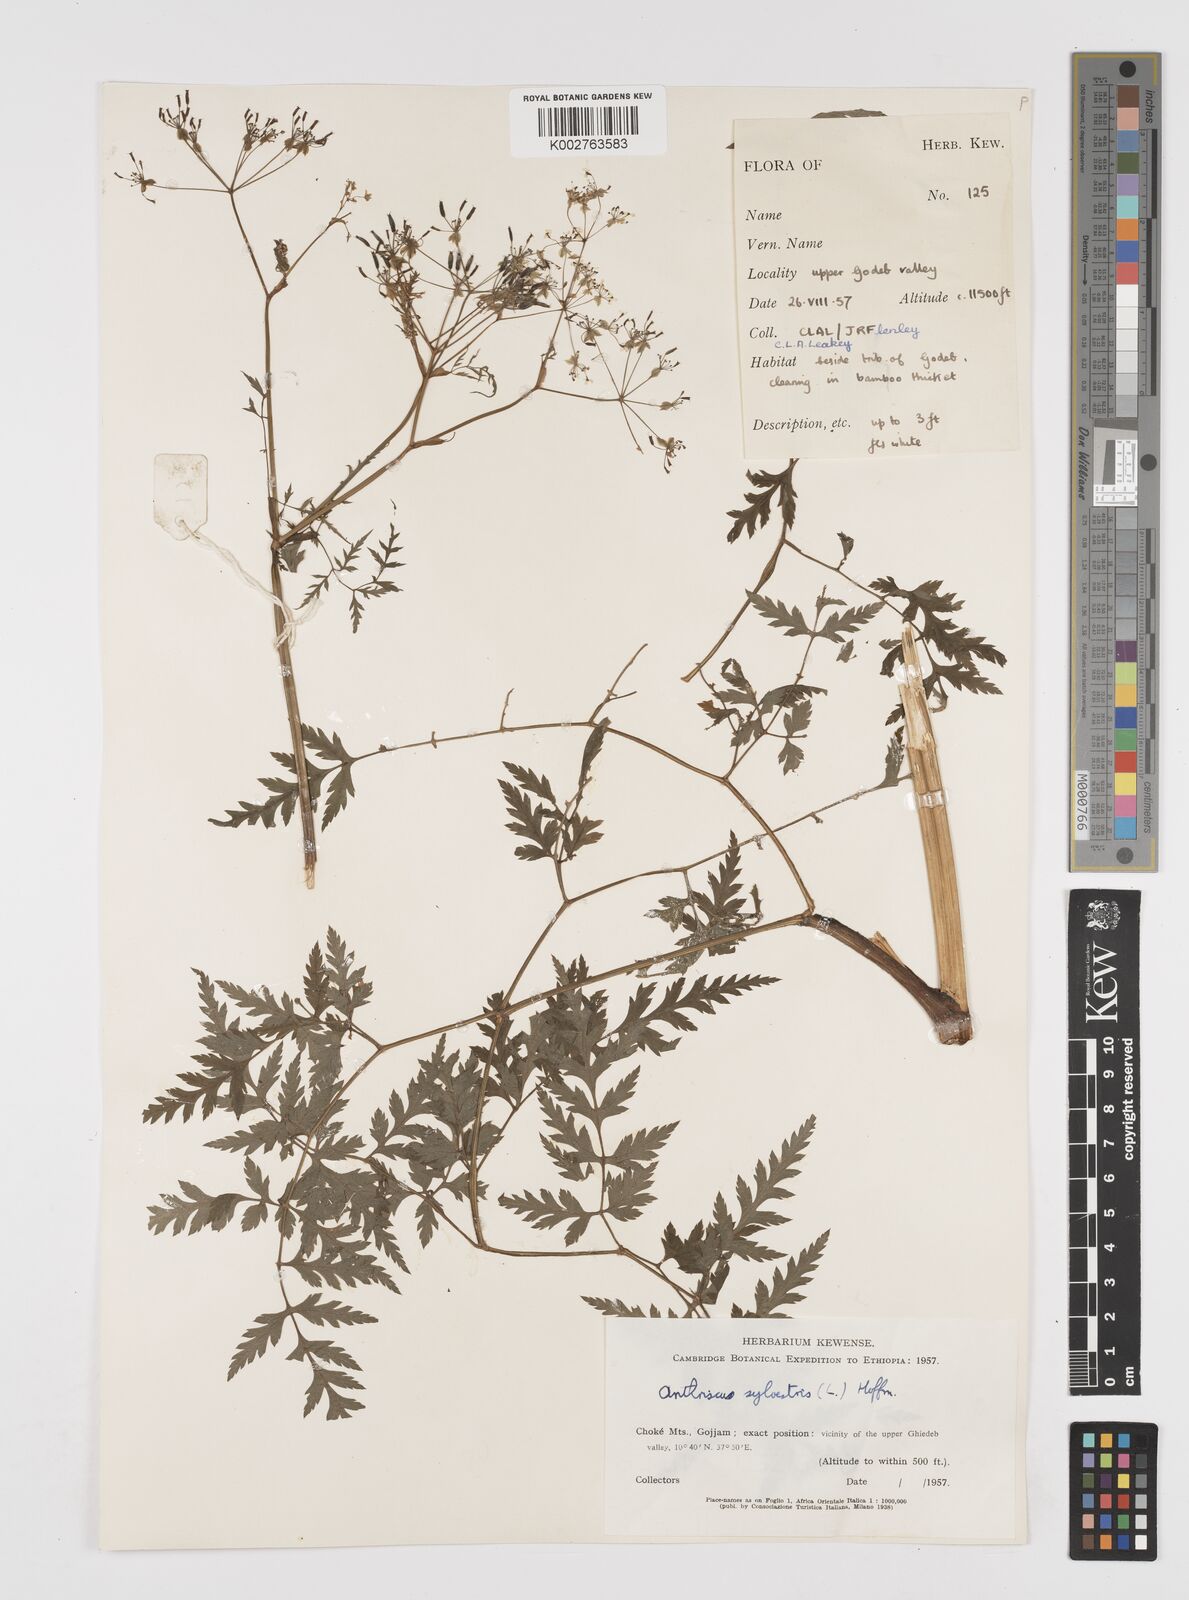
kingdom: Plantae
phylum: Tracheophyta
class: Magnoliopsida
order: Apiales
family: Apiaceae
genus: Anthriscus
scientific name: Anthriscus sylvestris
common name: Cow parsley
